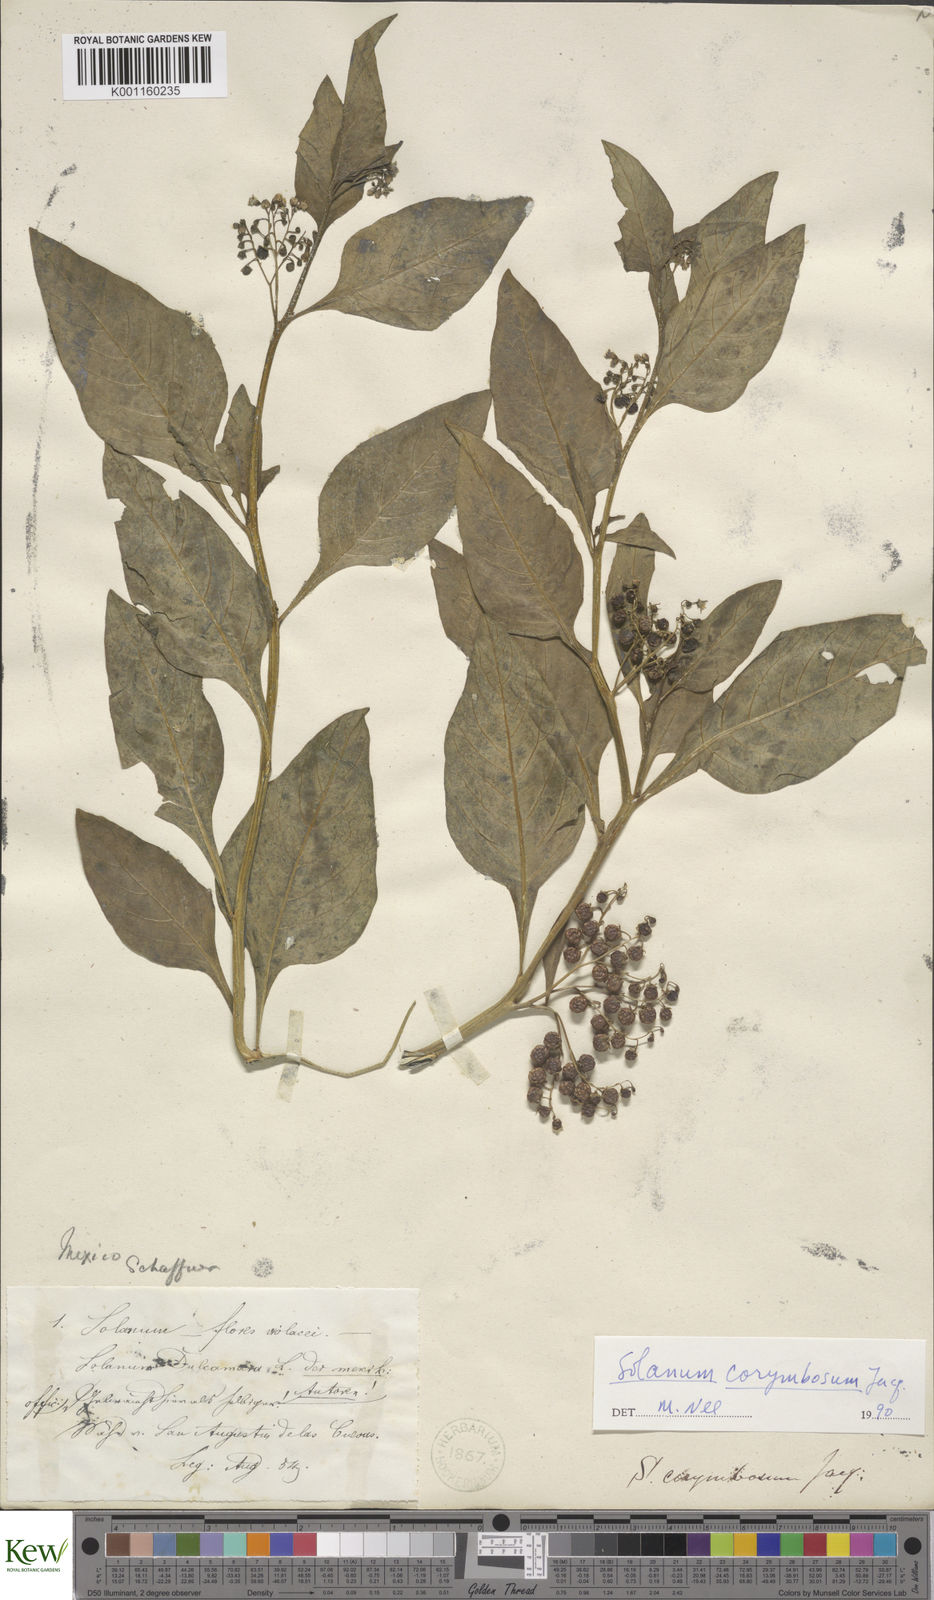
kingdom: Plantae
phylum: Tracheophyta
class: Magnoliopsida
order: Solanales
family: Solanaceae
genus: Solanum
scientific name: Solanum corymbosum
